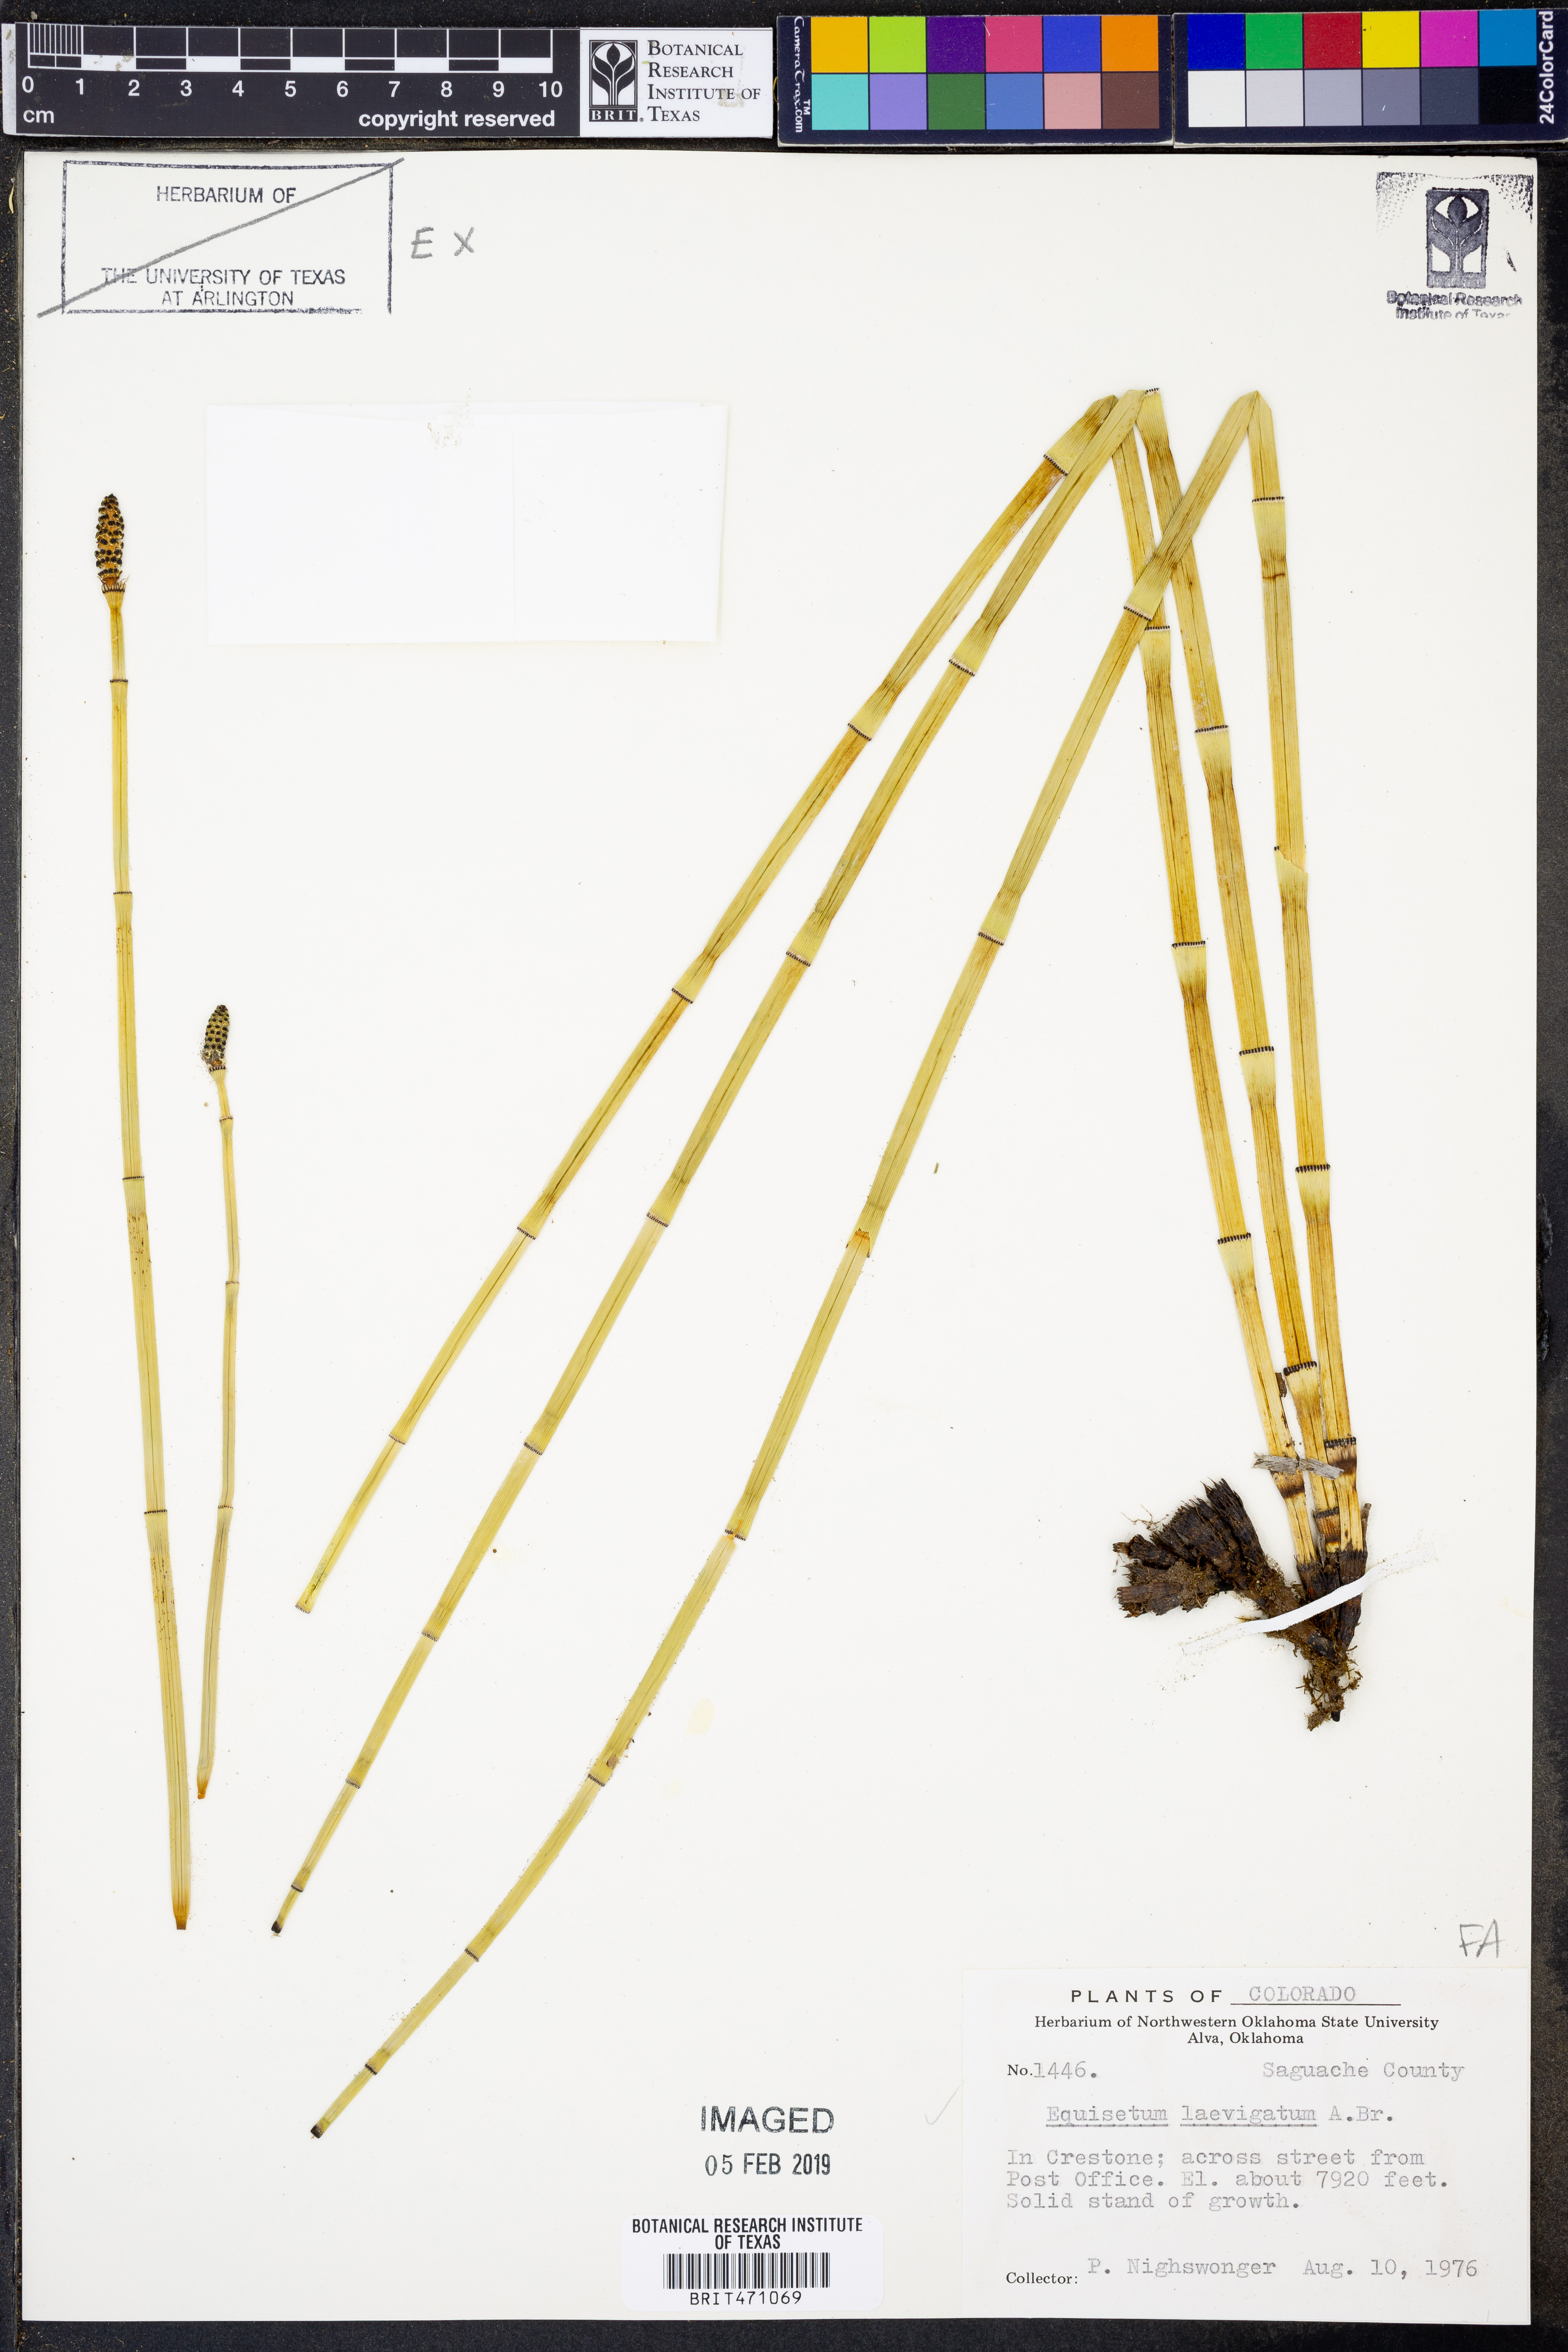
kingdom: Plantae
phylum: Tracheophyta
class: Polypodiopsida
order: Equisetales
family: Equisetaceae
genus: Equisetum
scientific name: Equisetum laevigatum
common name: Smooth scouring-rush
